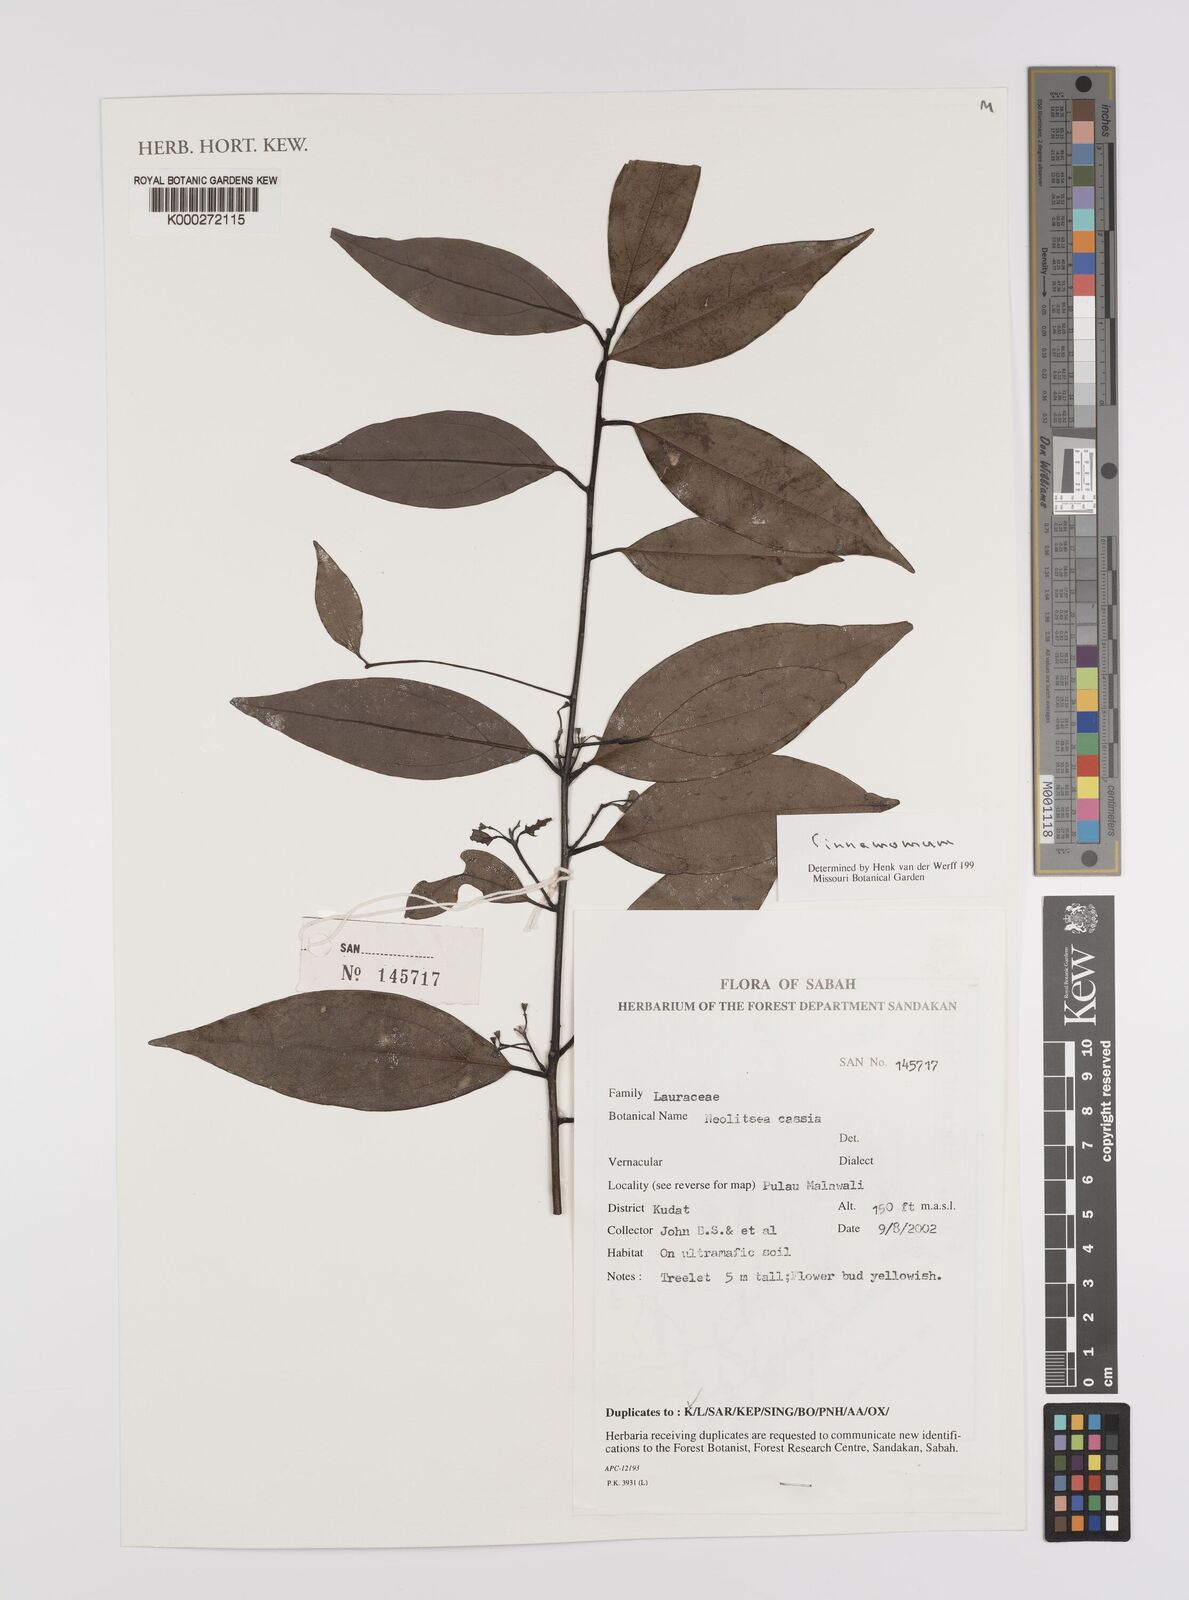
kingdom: Plantae
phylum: Tracheophyta
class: Magnoliopsida
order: Laurales
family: Lauraceae
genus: Cinnamomum
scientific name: Cinnamomum
